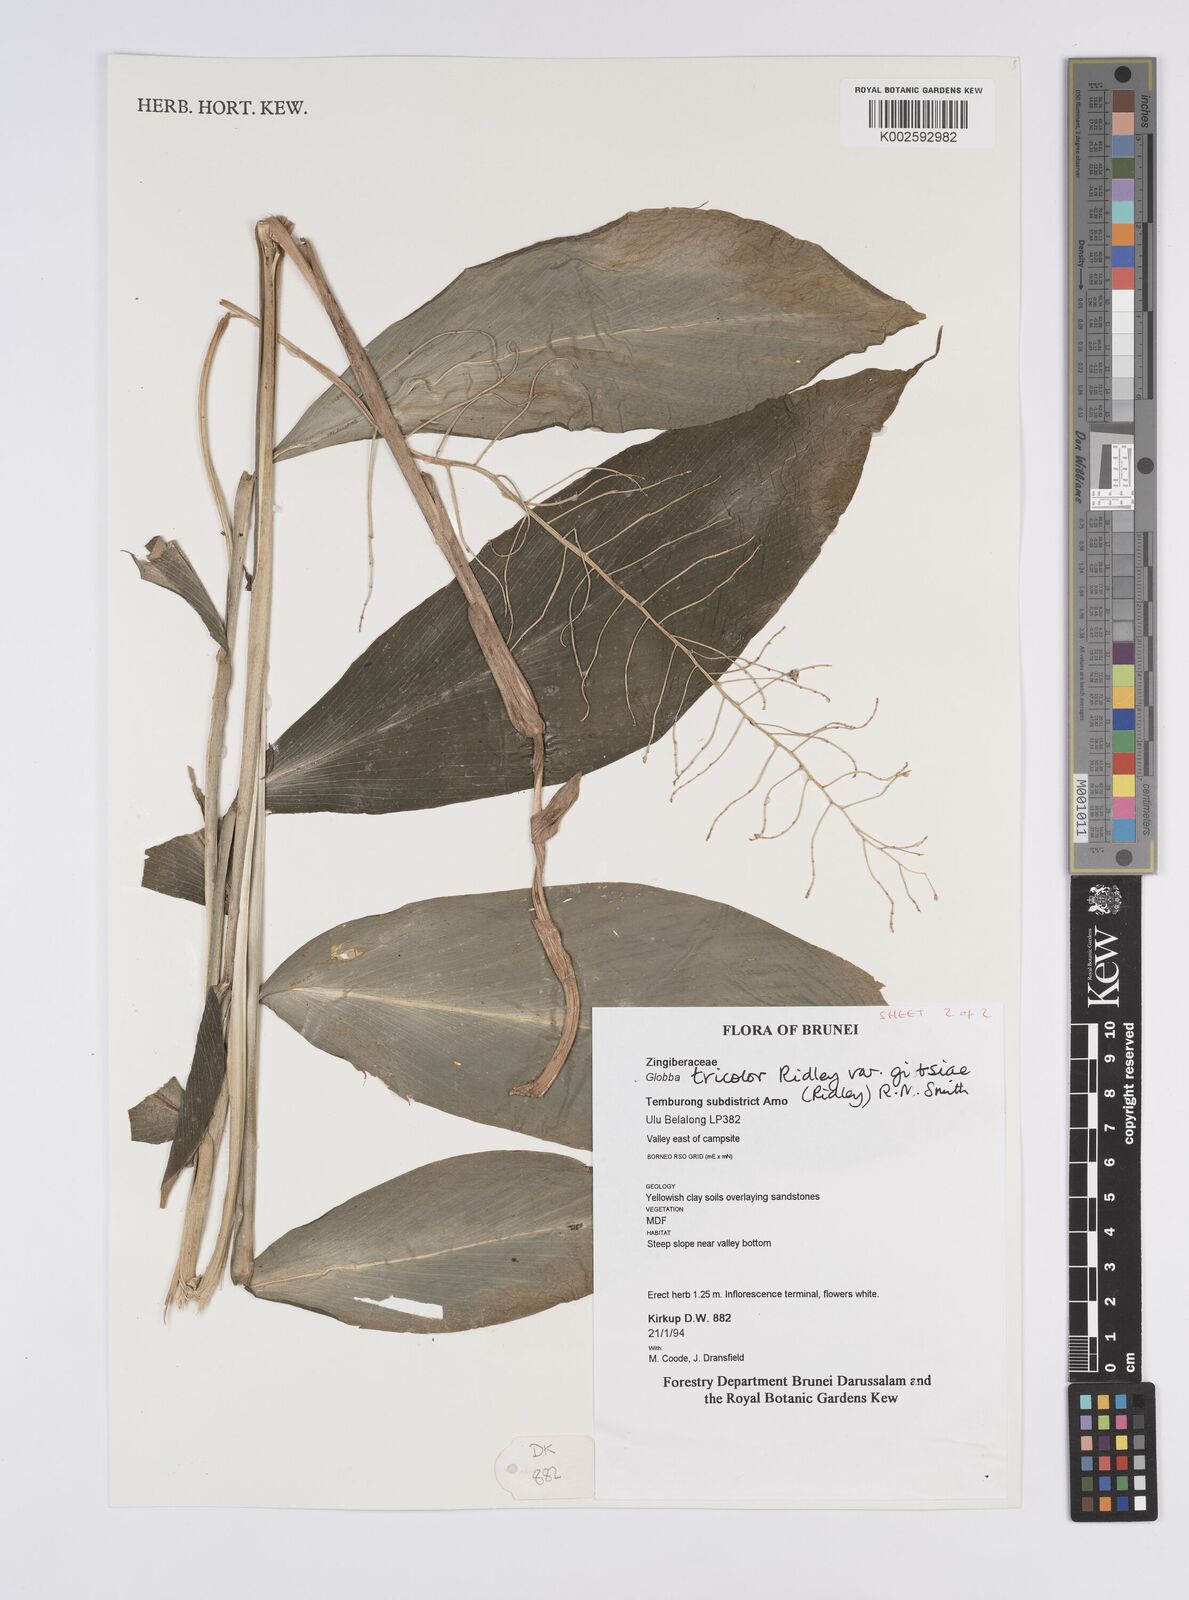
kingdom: Plantae
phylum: Tracheophyta
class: Liliopsida
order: Zingiberales
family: Zingiberaceae
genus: Globba
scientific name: Globba tricolor
